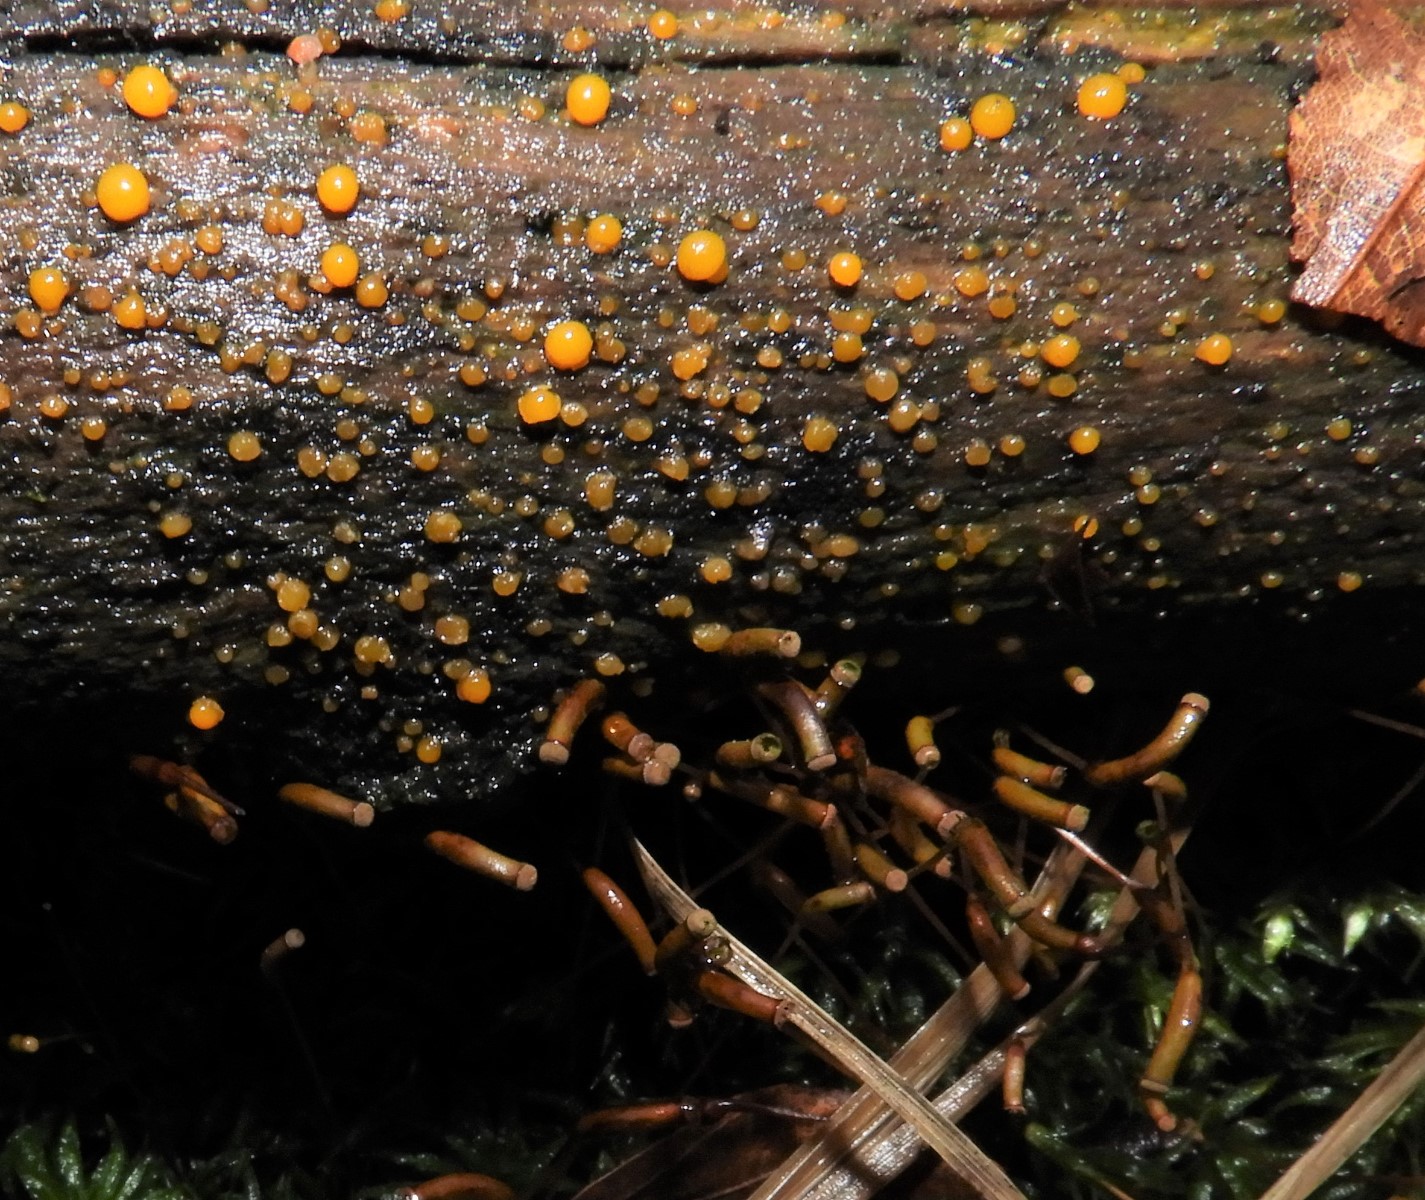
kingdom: Fungi
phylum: Basidiomycota
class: Dacrymycetes
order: Dacrymycetales
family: Dacrymycetaceae
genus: Dacrymyces
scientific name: Dacrymyces stillatus
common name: almindelig tåresvamp
